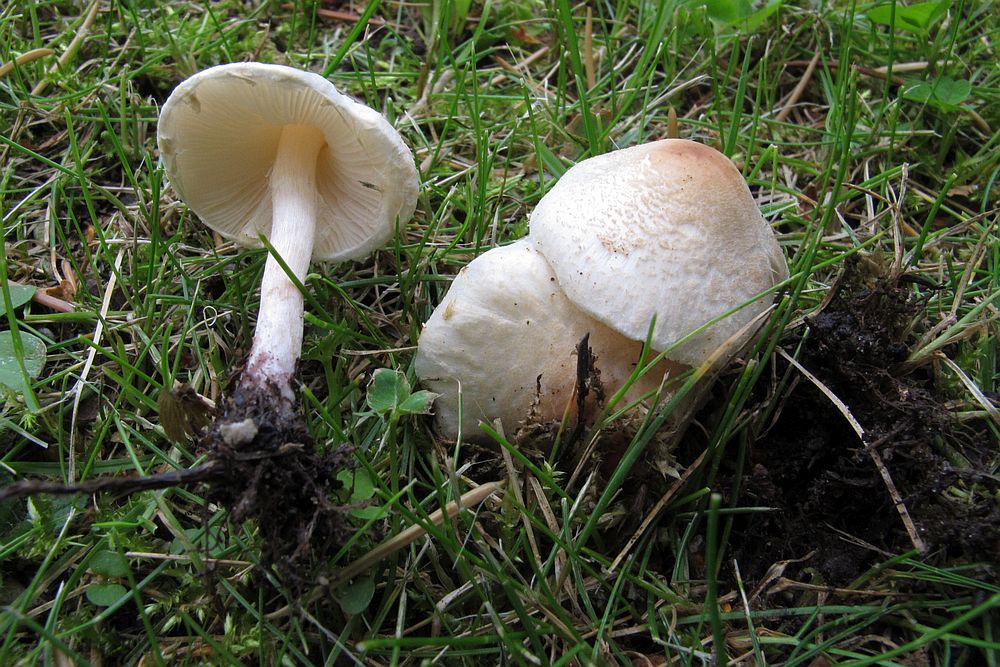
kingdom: Fungi
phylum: Basidiomycota
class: Agaricomycetes
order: Agaricales
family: Agaricaceae
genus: Lepiota
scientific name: Lepiota erminea
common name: hvid parasolhat
